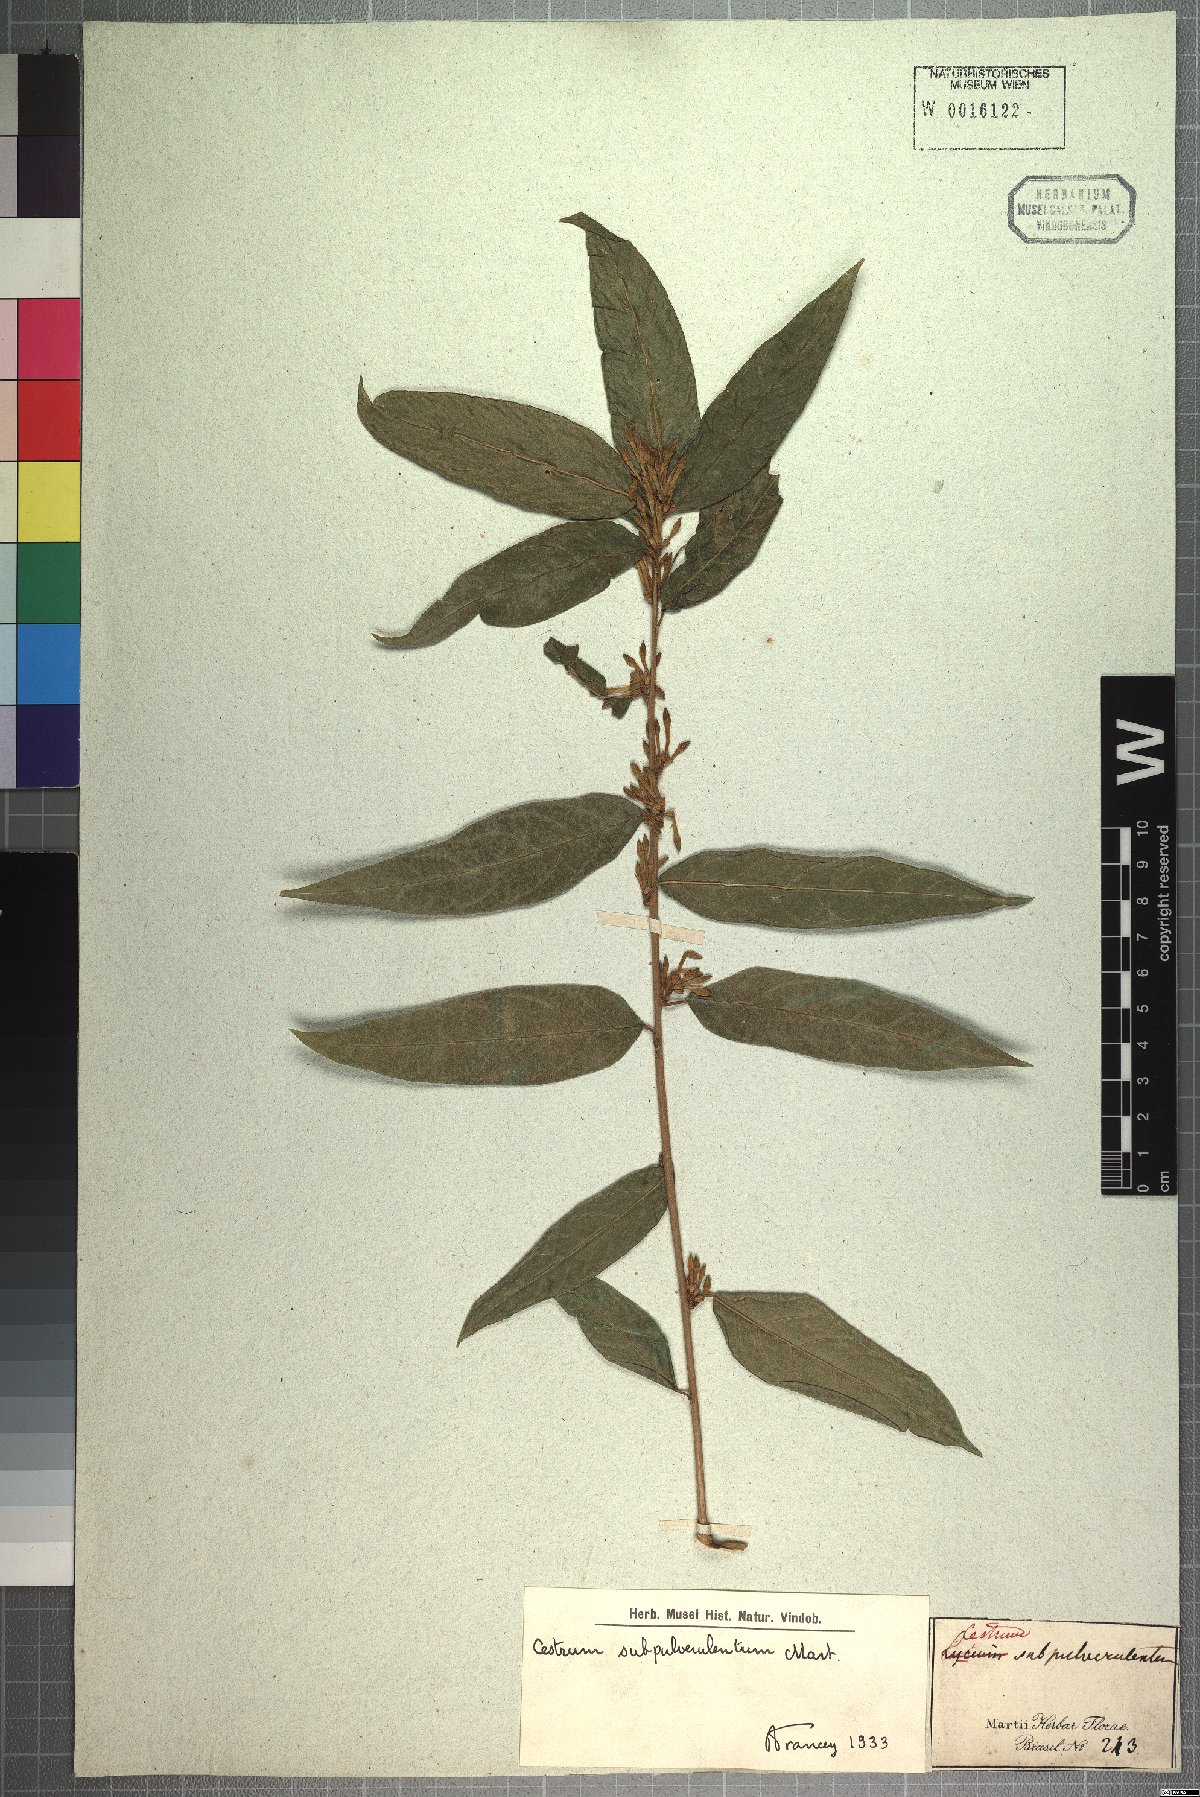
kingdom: Plantae
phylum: Tracheophyta
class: Magnoliopsida
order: Solanales
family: Solanaceae
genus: Cestrum
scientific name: Cestrum subpulverulentum
